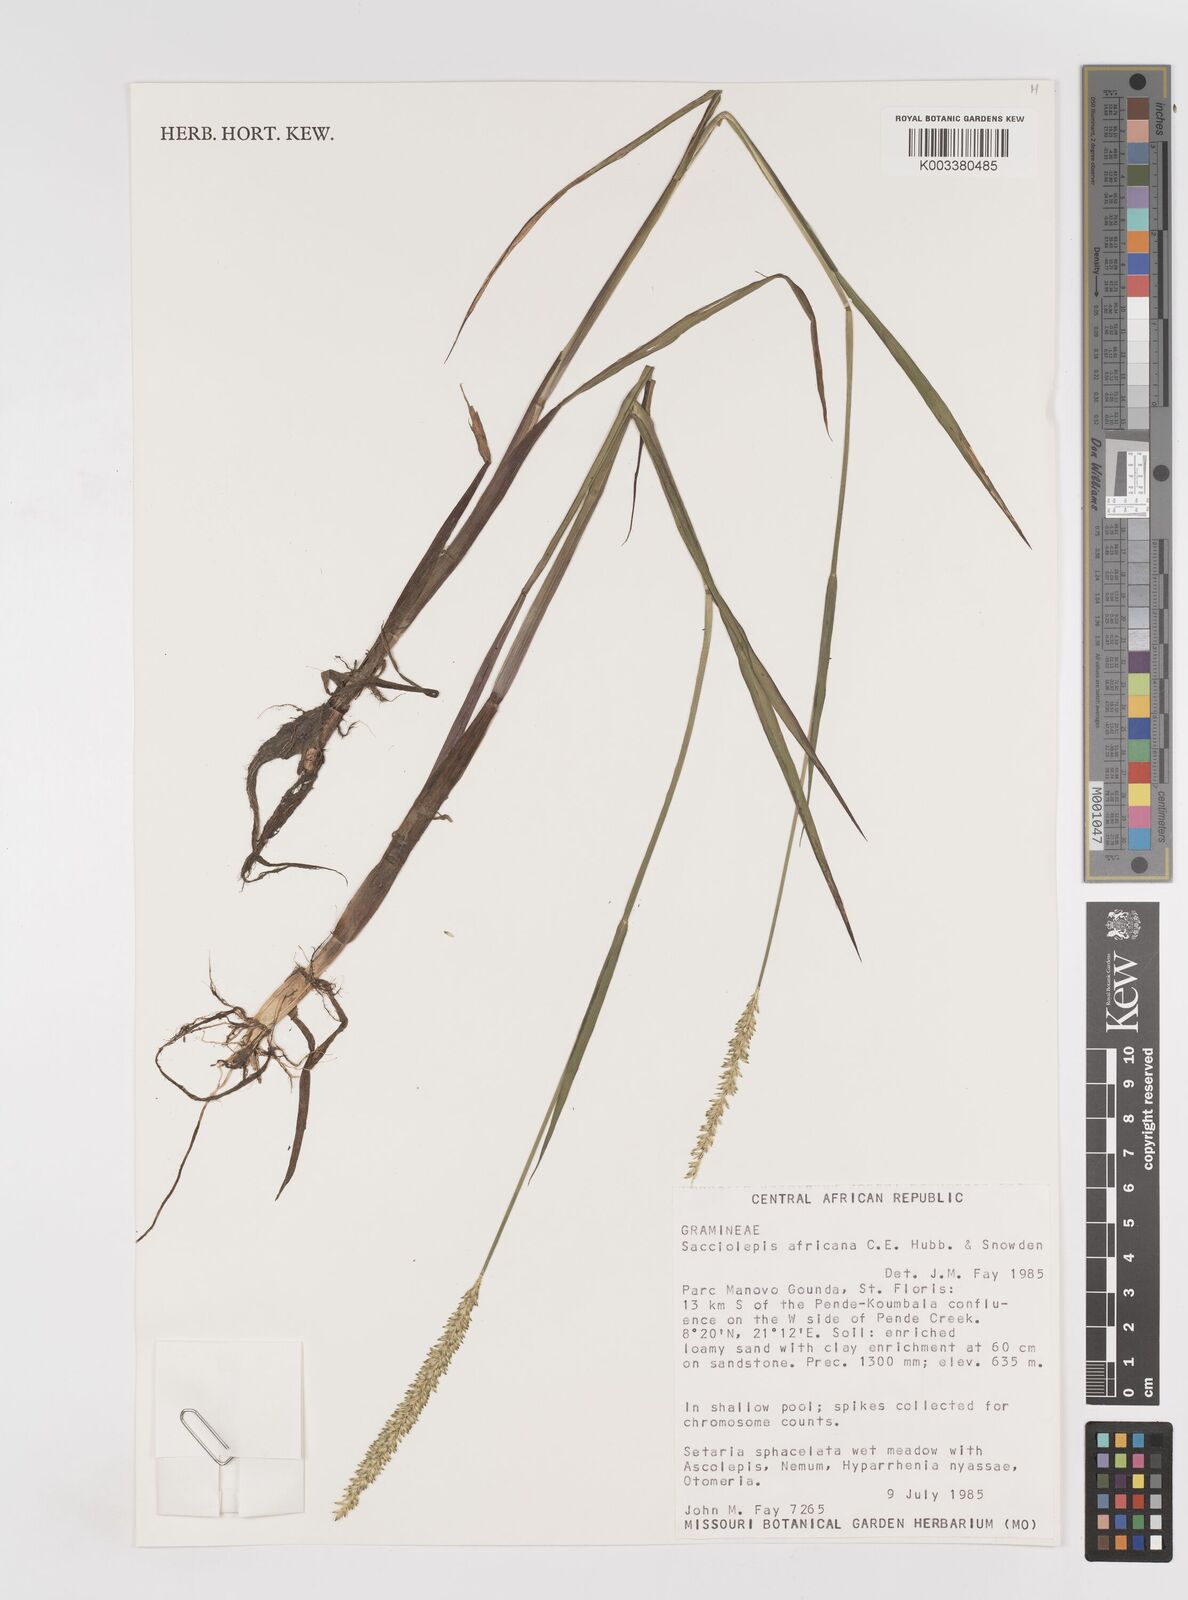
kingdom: Plantae
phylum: Tracheophyta
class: Liliopsida
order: Poales
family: Poaceae
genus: Sacciolepis
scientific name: Sacciolepis africana
